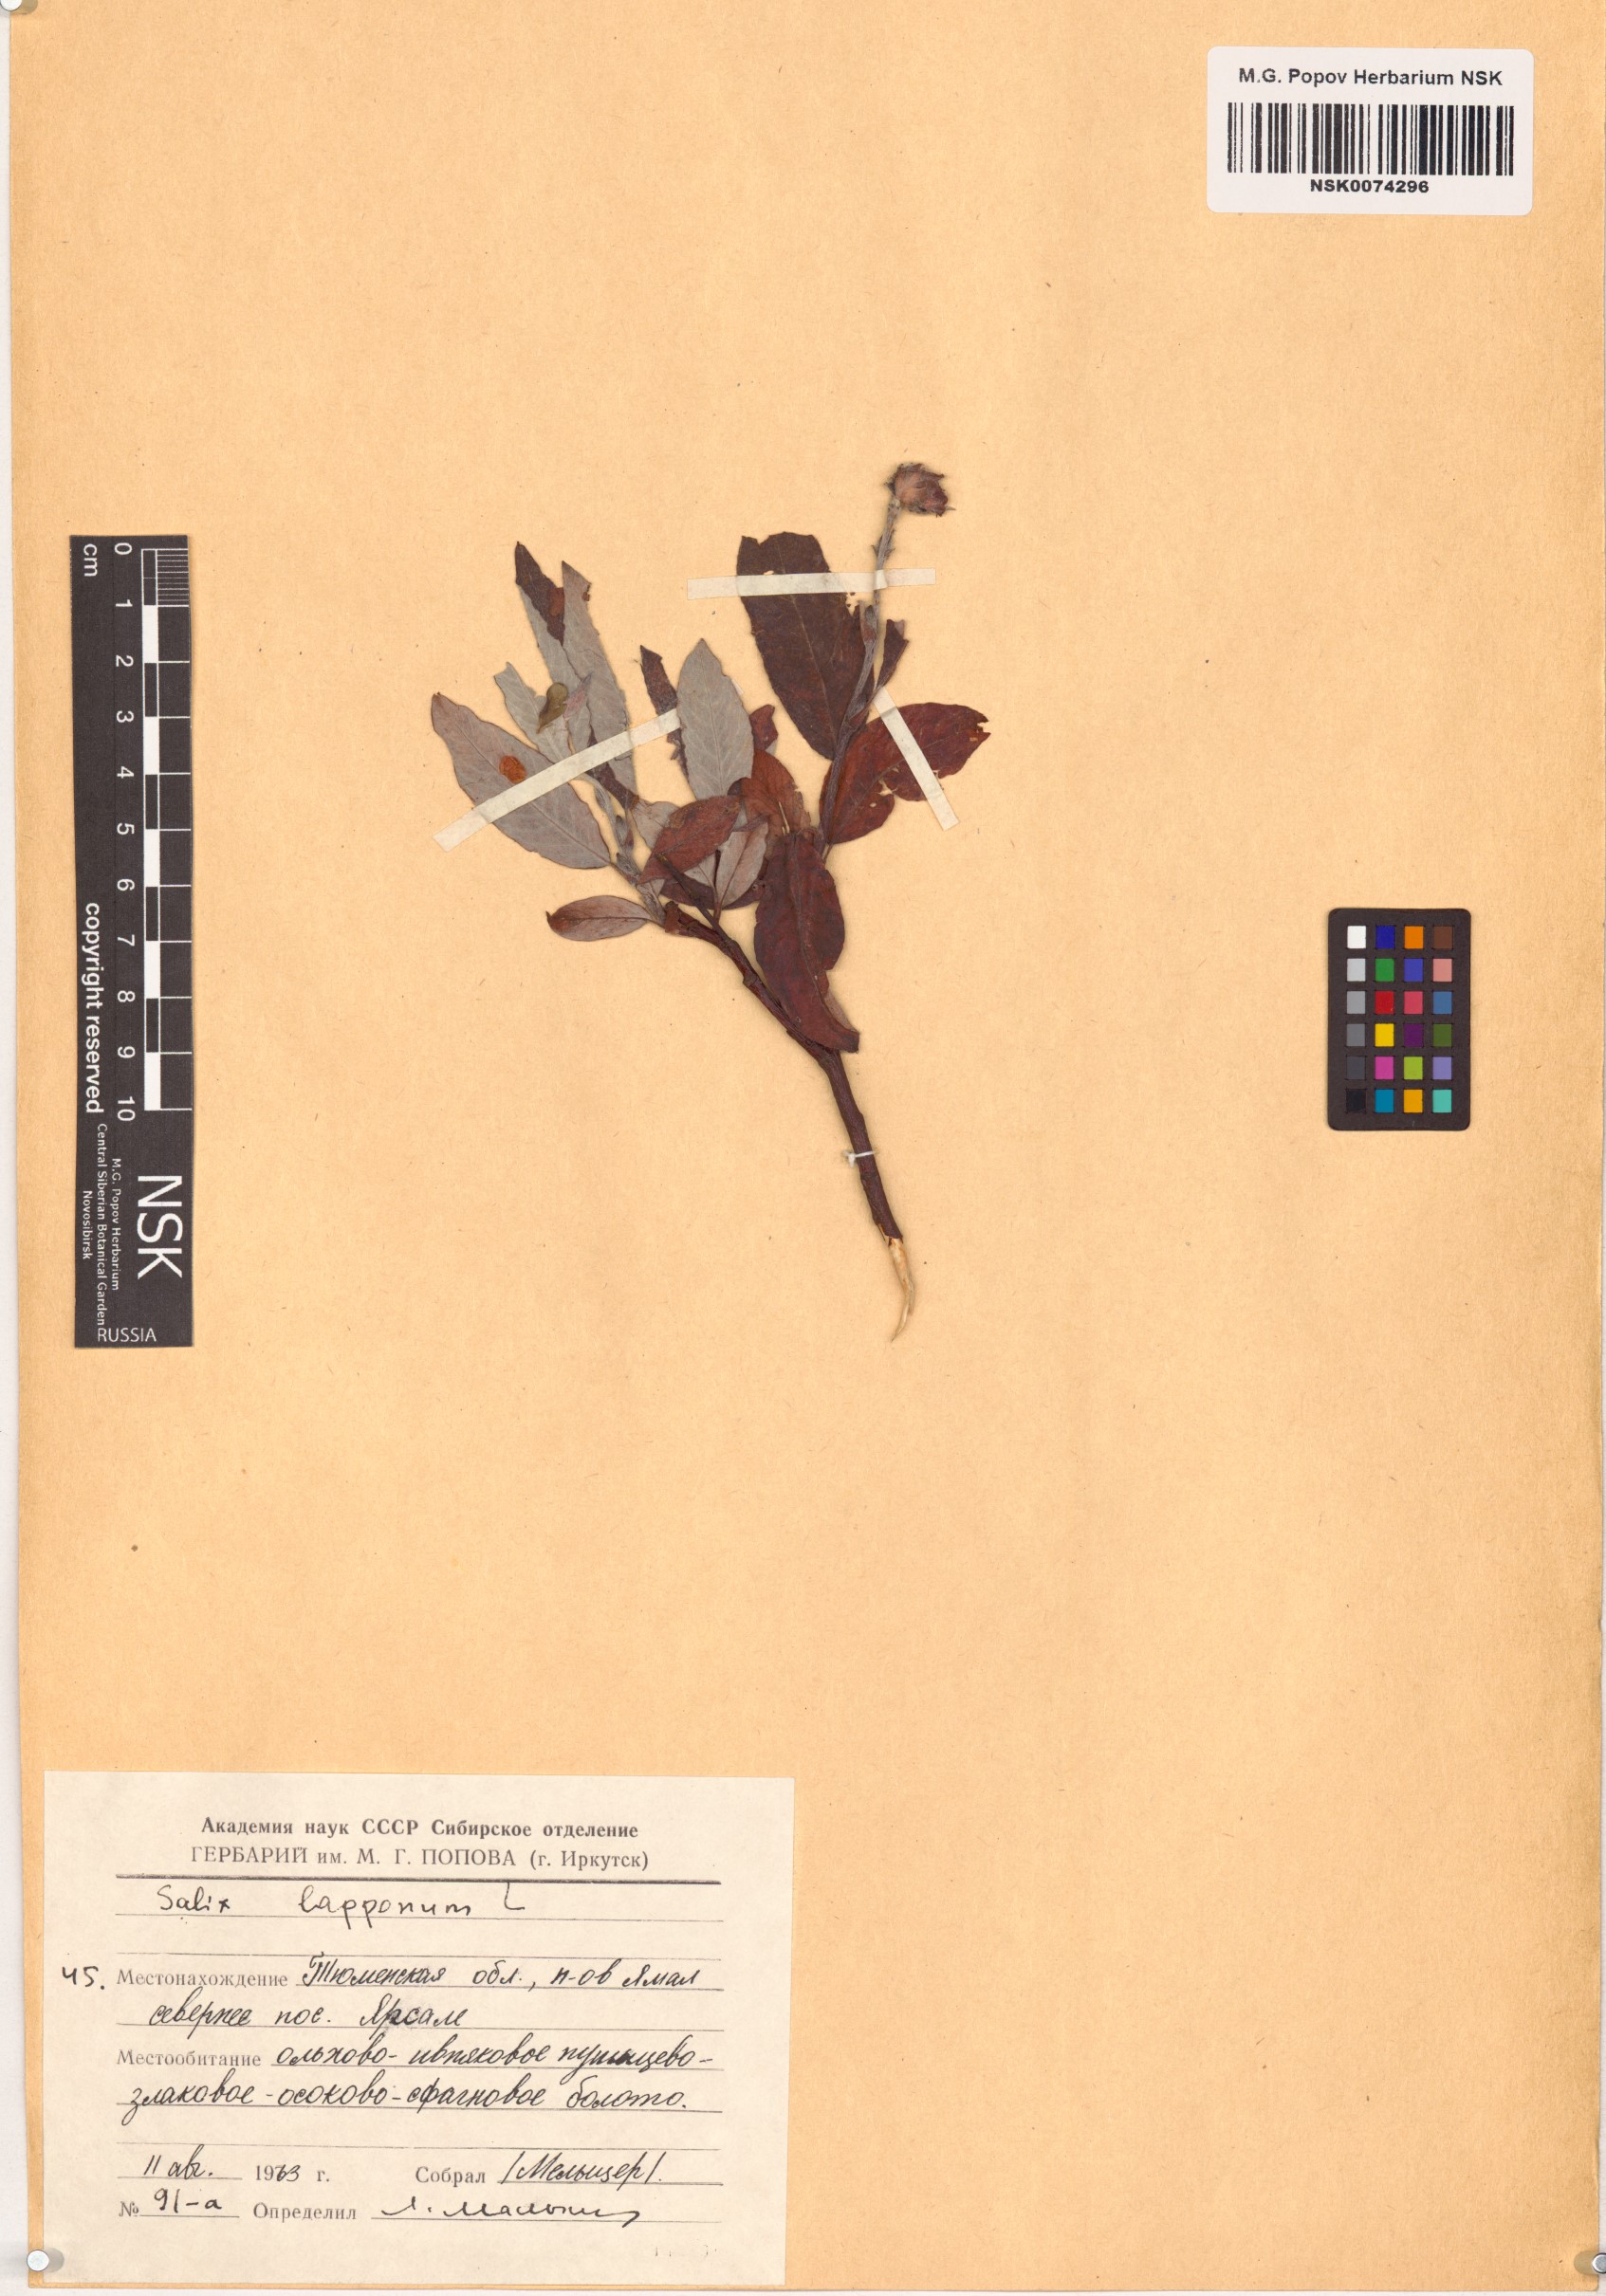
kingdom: Plantae
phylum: Tracheophyta
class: Magnoliopsida
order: Malpighiales
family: Salicaceae
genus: Salix
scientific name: Salix lapponum
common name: Downy willow
